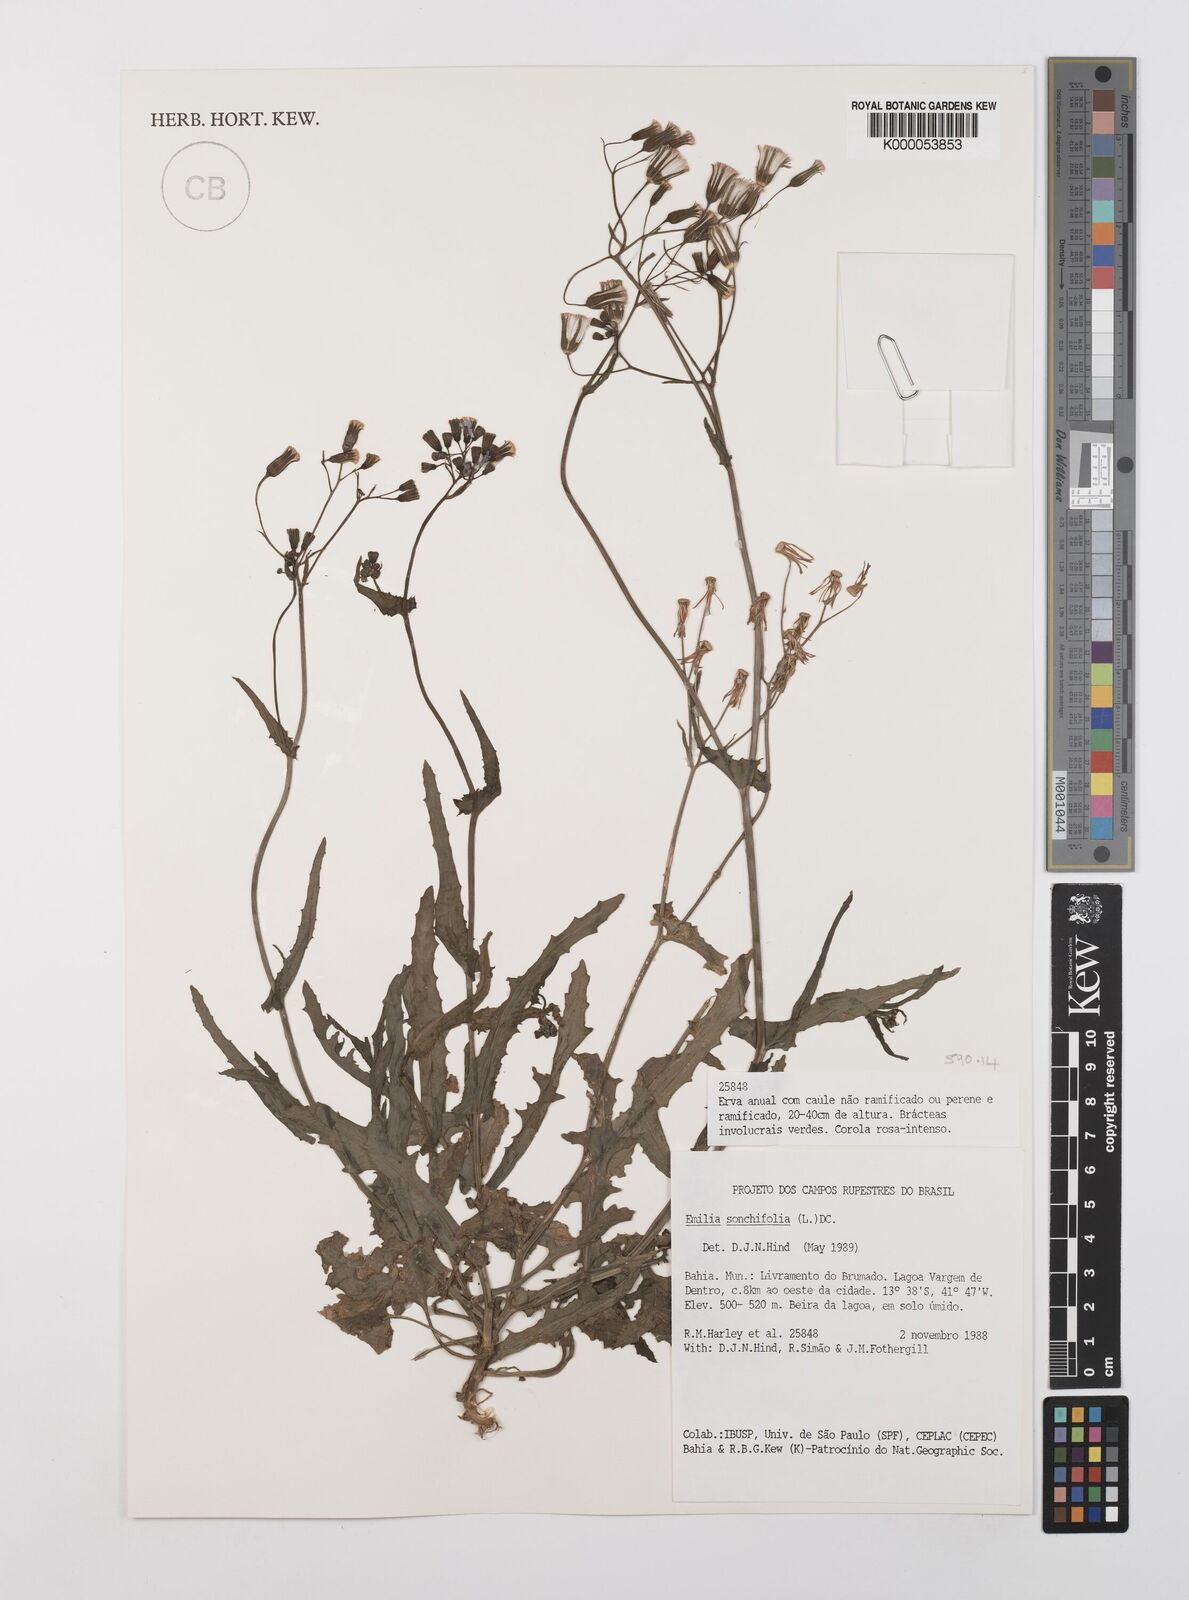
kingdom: Plantae
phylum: Tracheophyta
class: Magnoliopsida
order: Asterales
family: Asteraceae
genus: Emilia
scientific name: Emilia
